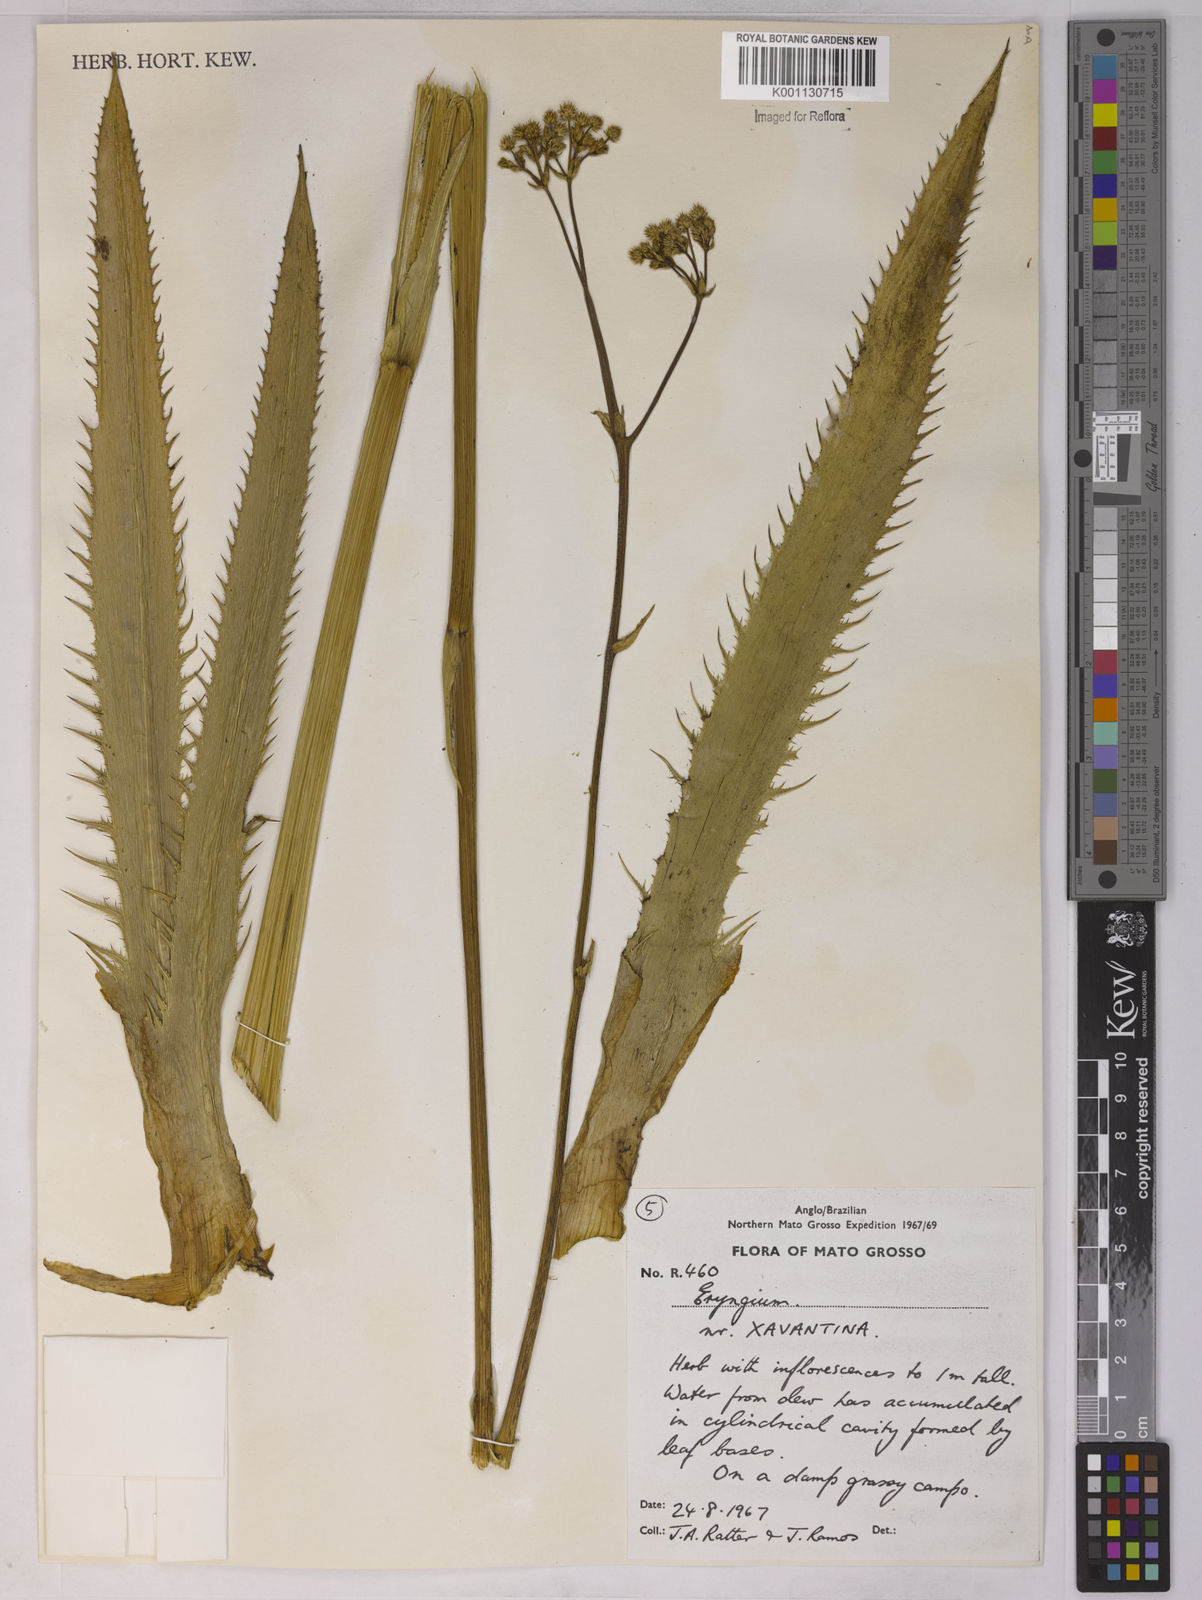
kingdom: Plantae
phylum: Tracheophyta
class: Magnoliopsida
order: Apiales
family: Apiaceae
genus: Eryngium
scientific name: Eryngium
